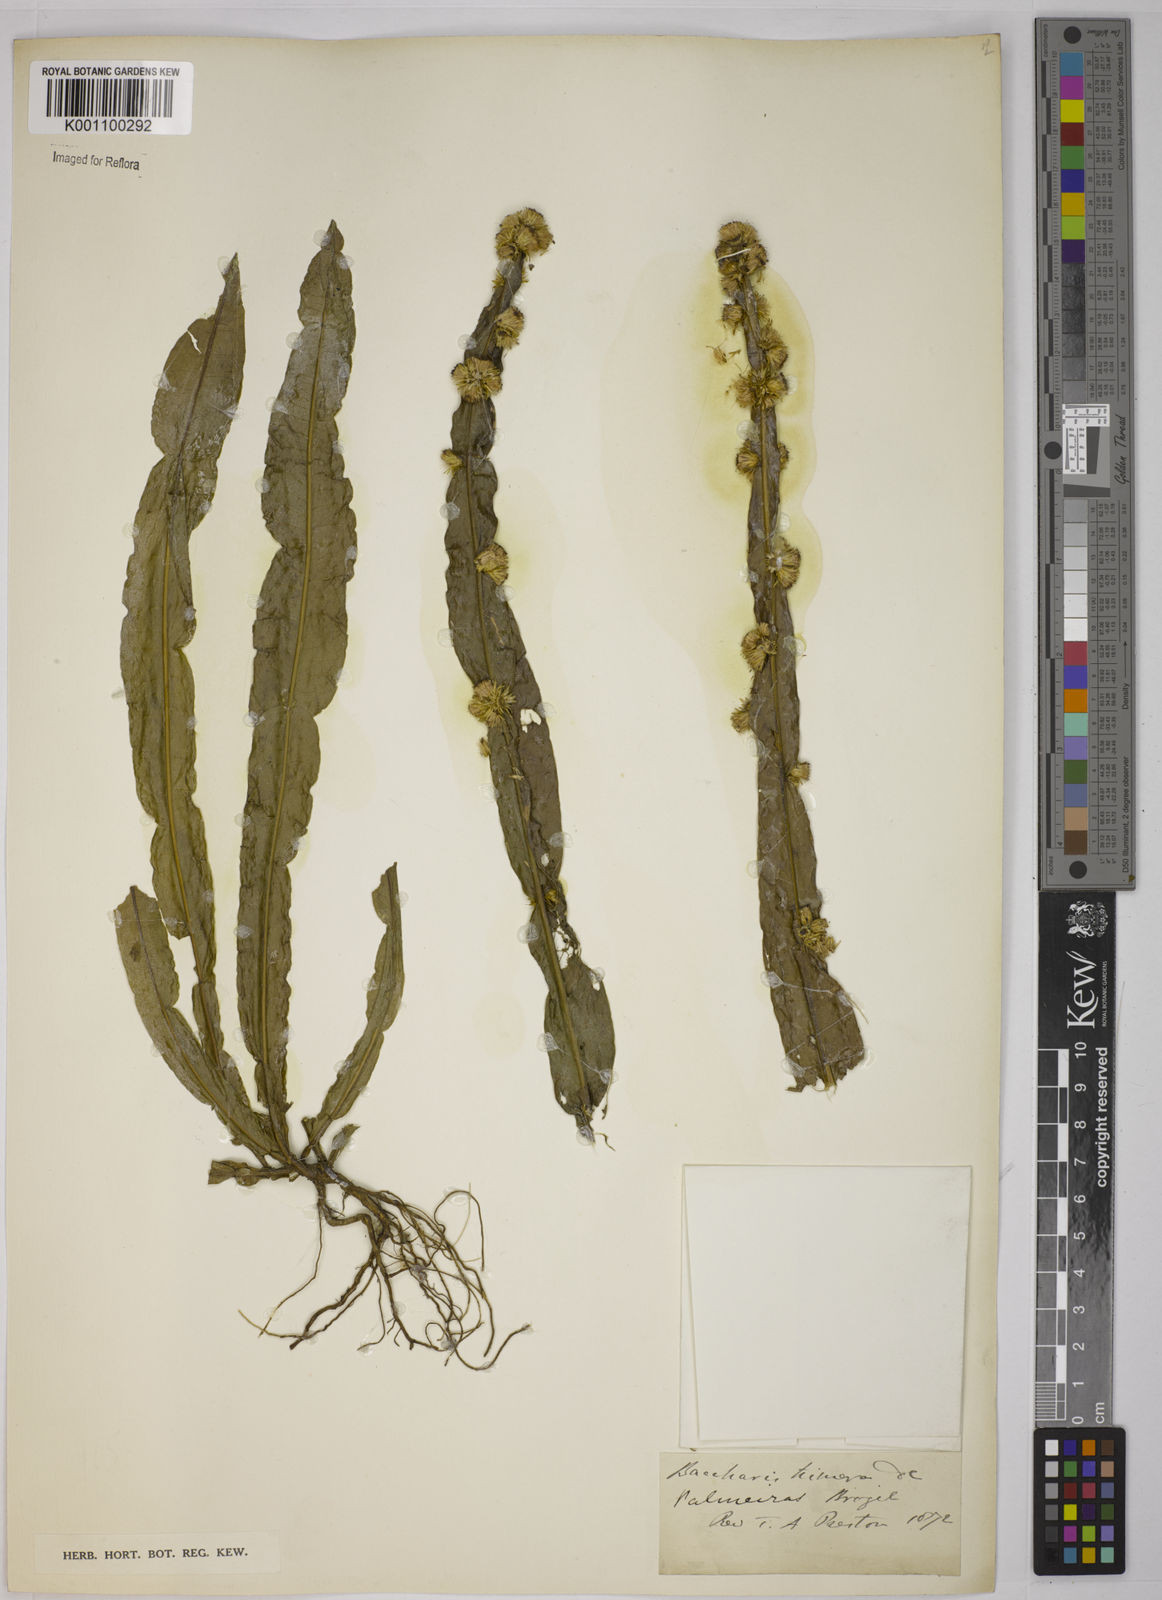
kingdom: Plantae
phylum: Tracheophyta
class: Magnoliopsida
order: Asterales
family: Asteraceae
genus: Baccharis
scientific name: Baccharis trimera
